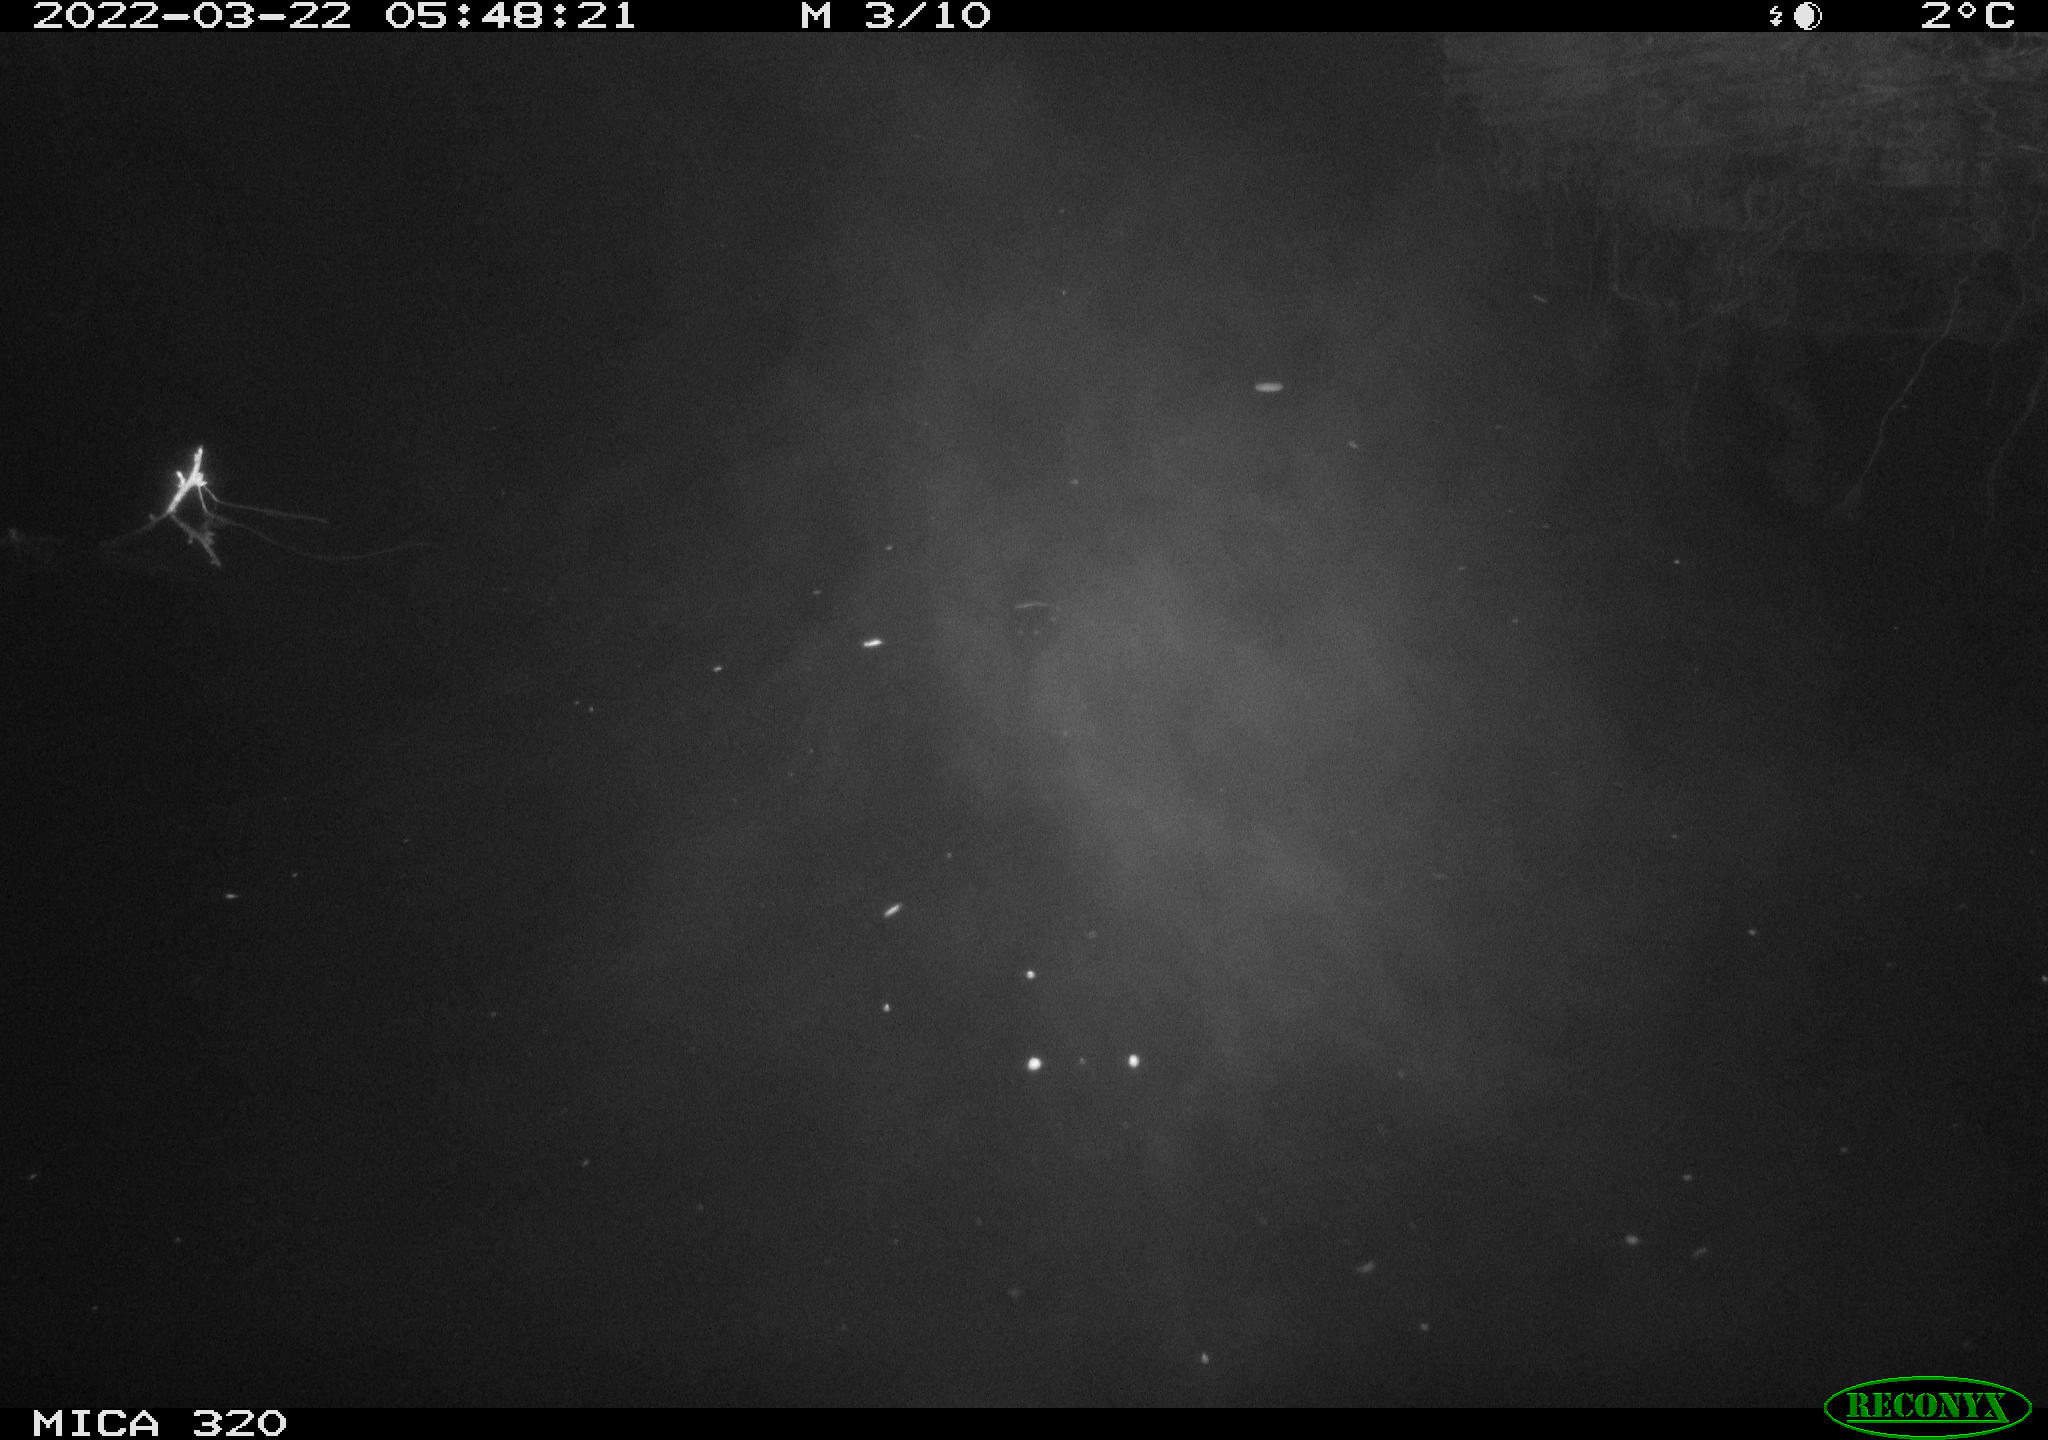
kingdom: Animalia
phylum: Chordata
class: Aves
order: Anseriformes
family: Anatidae
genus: Anas
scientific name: Anas platyrhynchos
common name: Mallard
